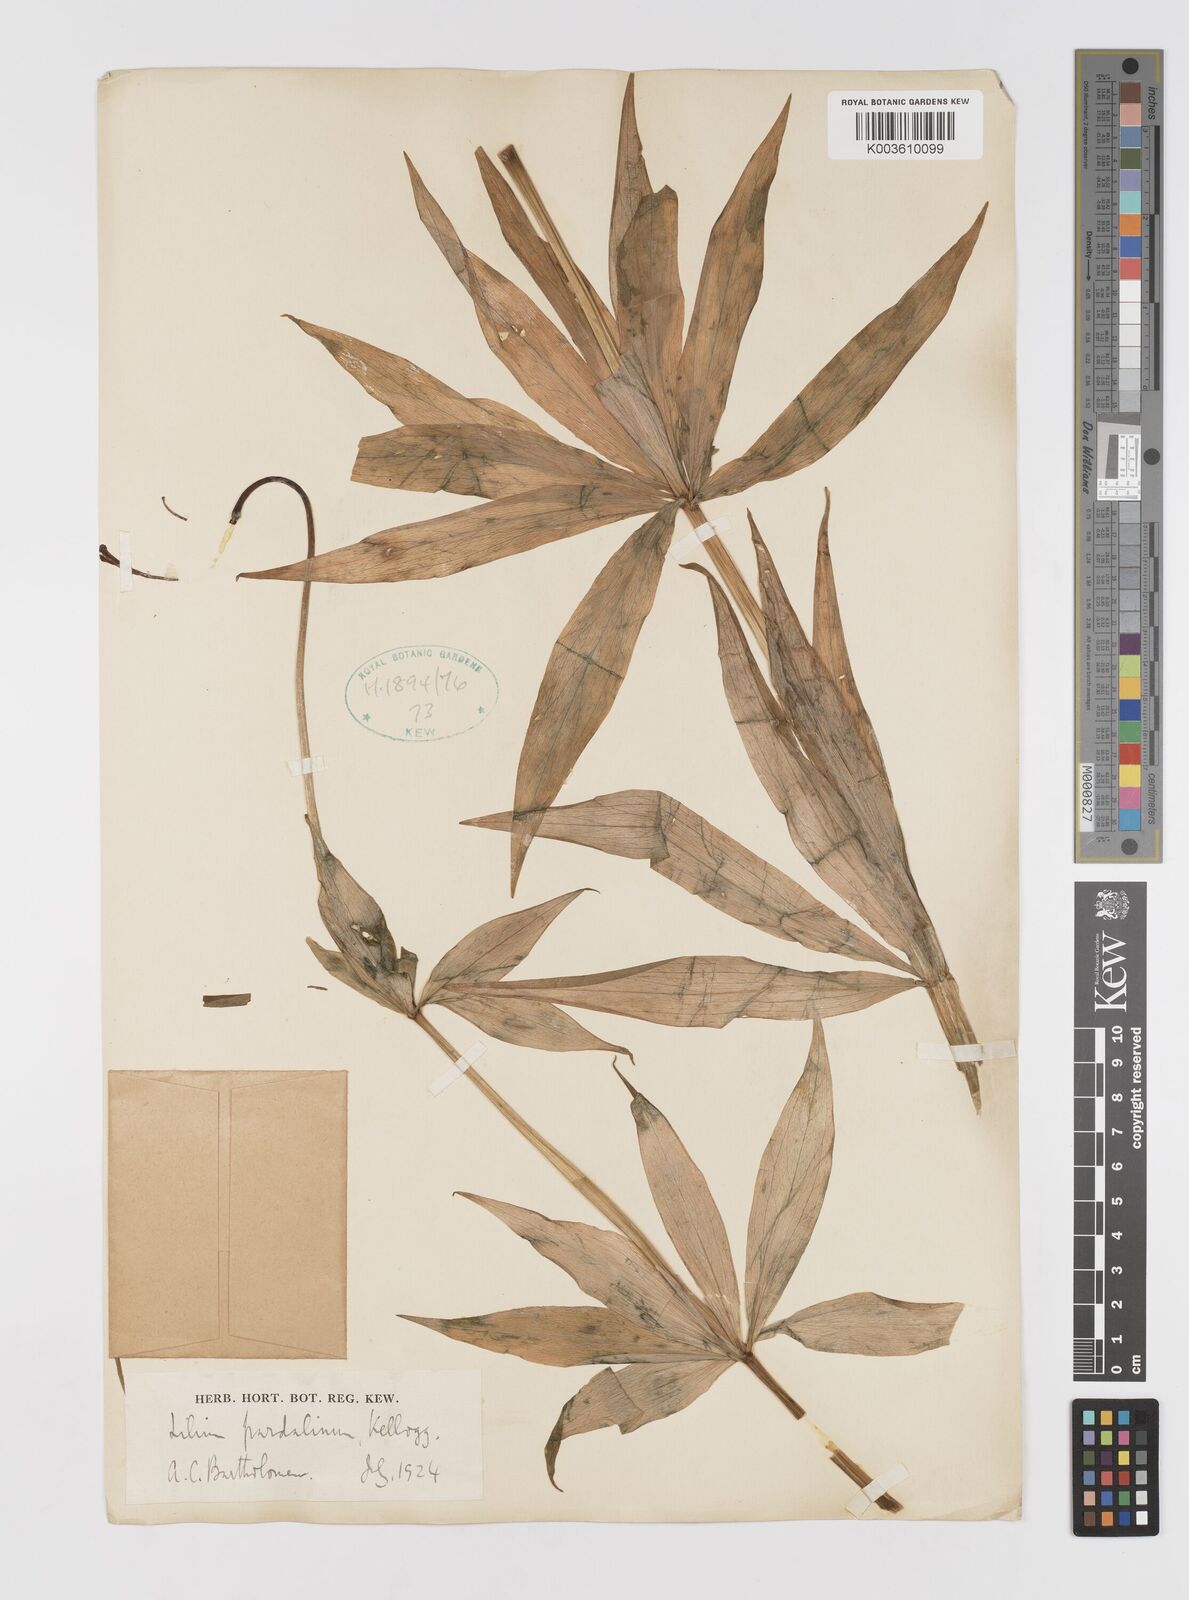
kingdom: Plantae
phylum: Tracheophyta
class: Liliopsida
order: Liliales
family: Liliaceae
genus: Lilium
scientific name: Lilium pardalinum
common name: Panther lily
